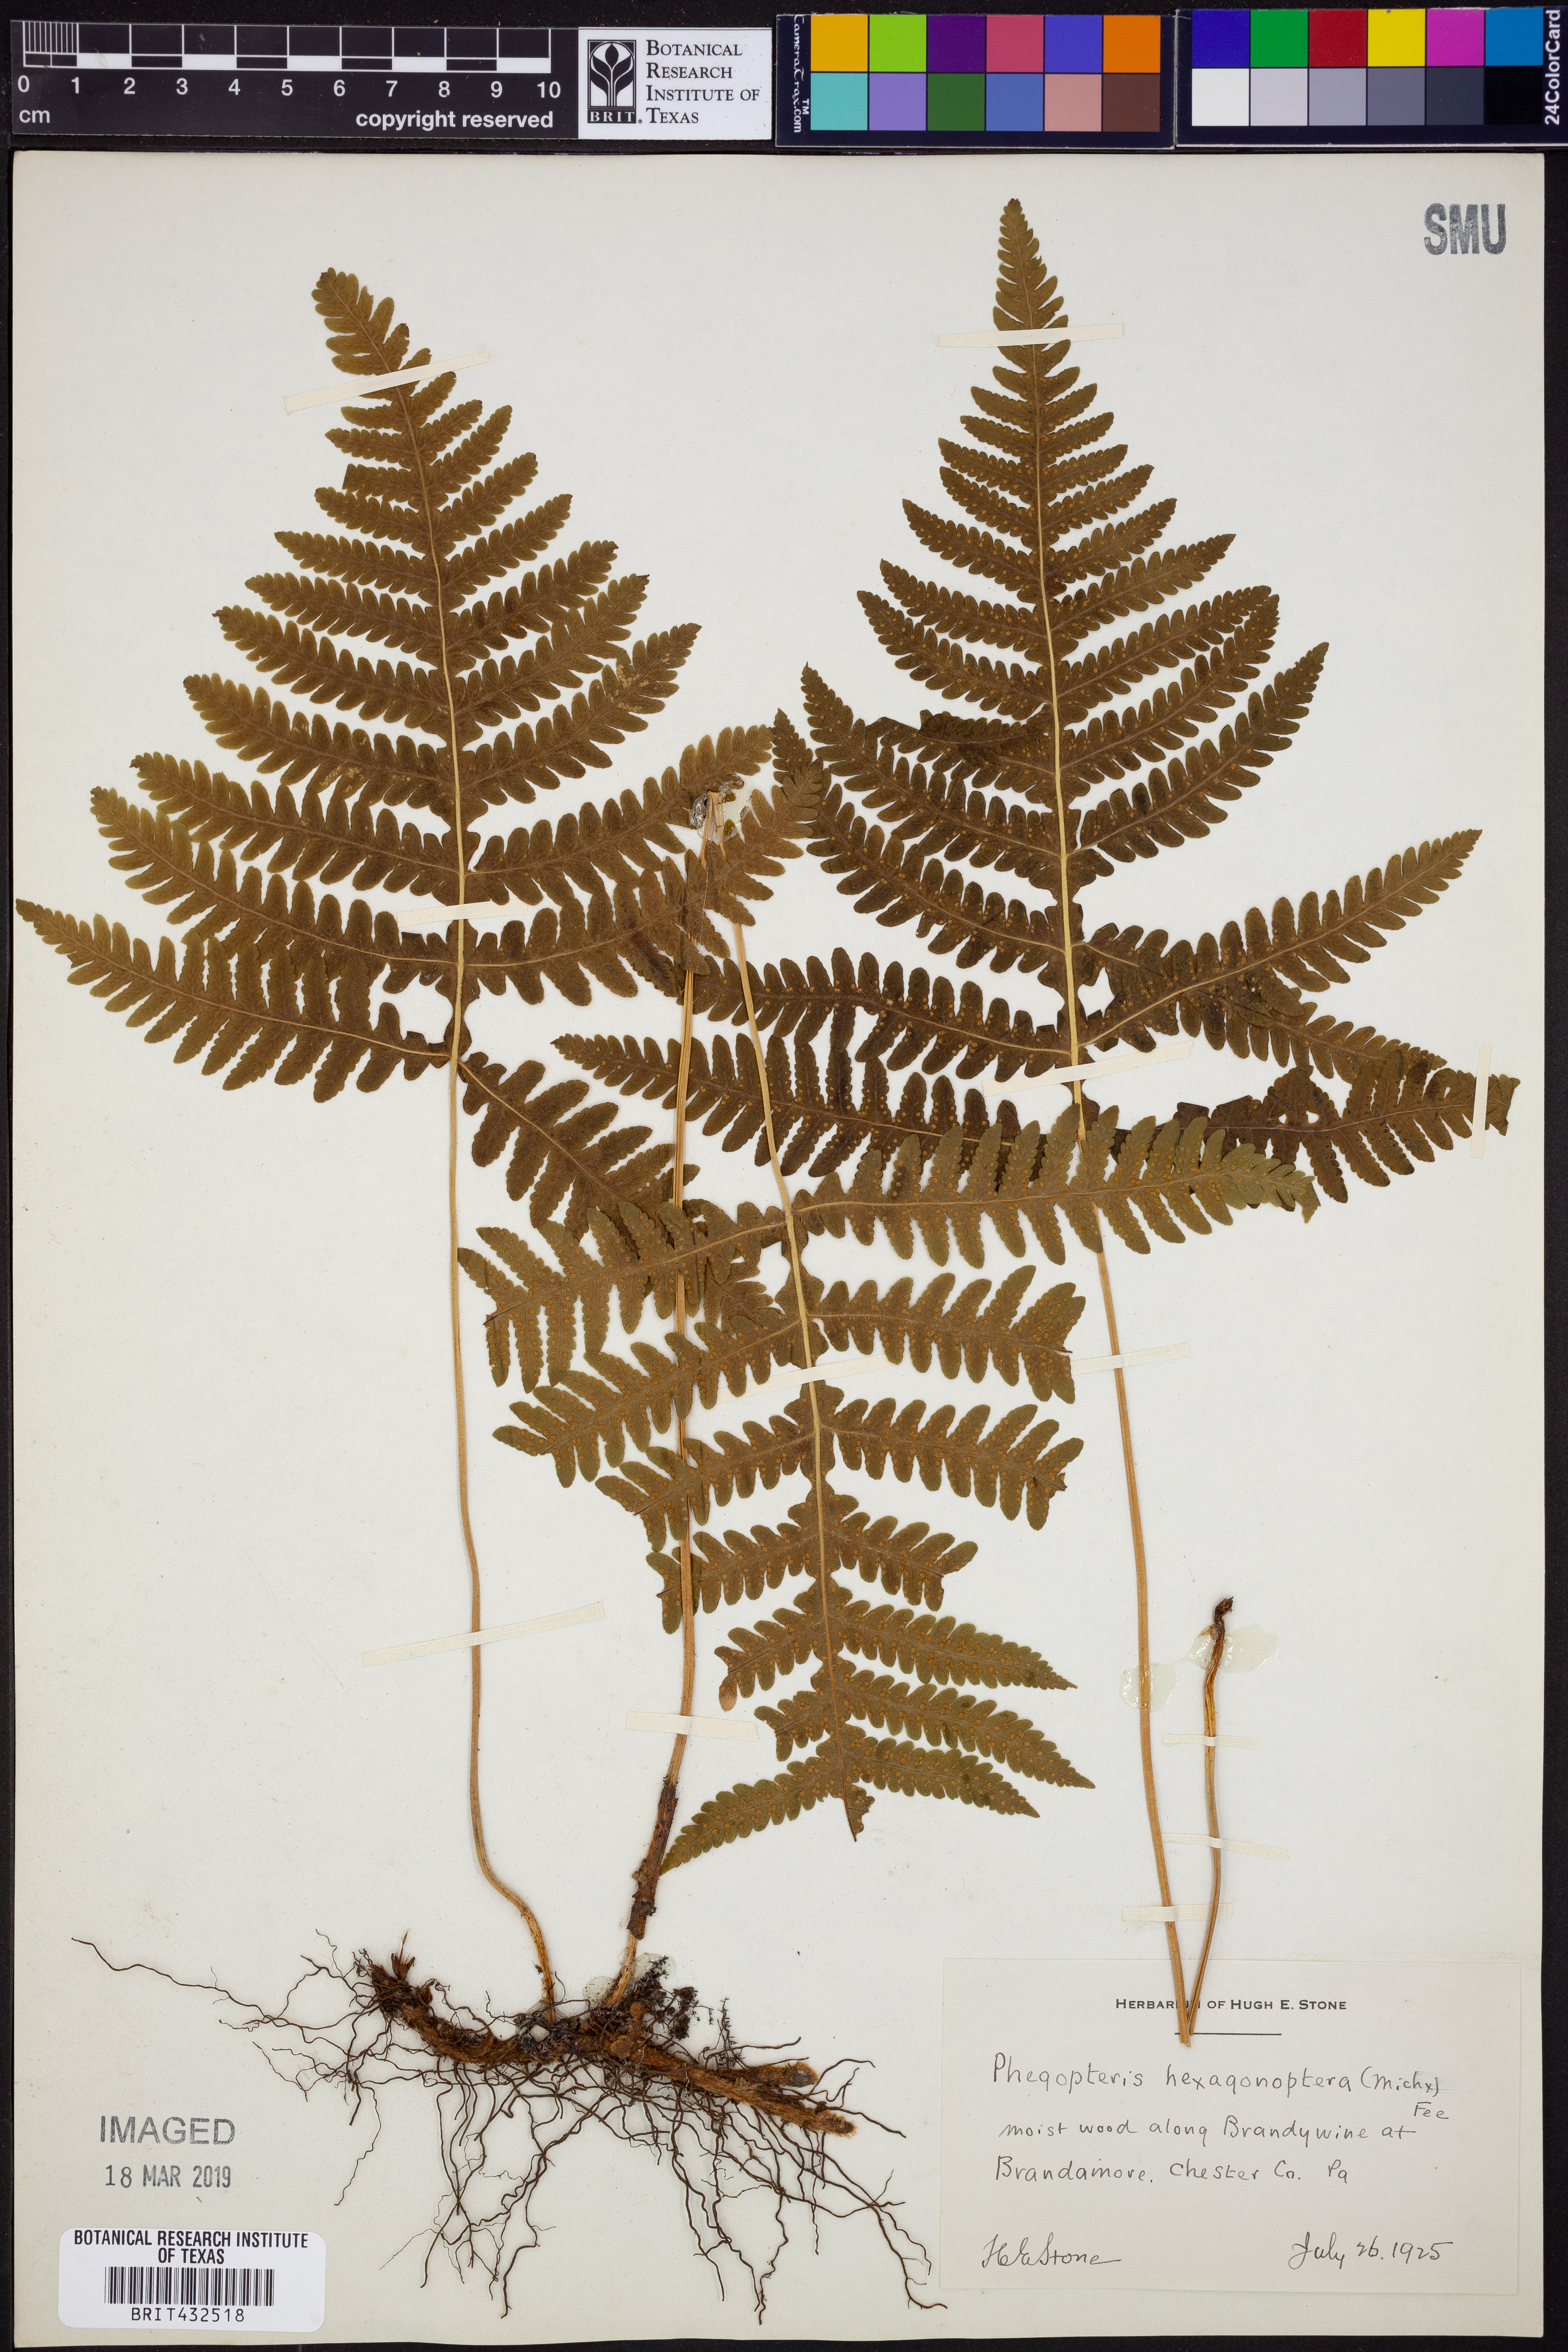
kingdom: Plantae
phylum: Tracheophyta
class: Polypodiopsida
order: Polypodiales
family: Thelypteridaceae
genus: Phegopteris
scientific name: Phegopteris hexagonoptera
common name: Broad beech fern
